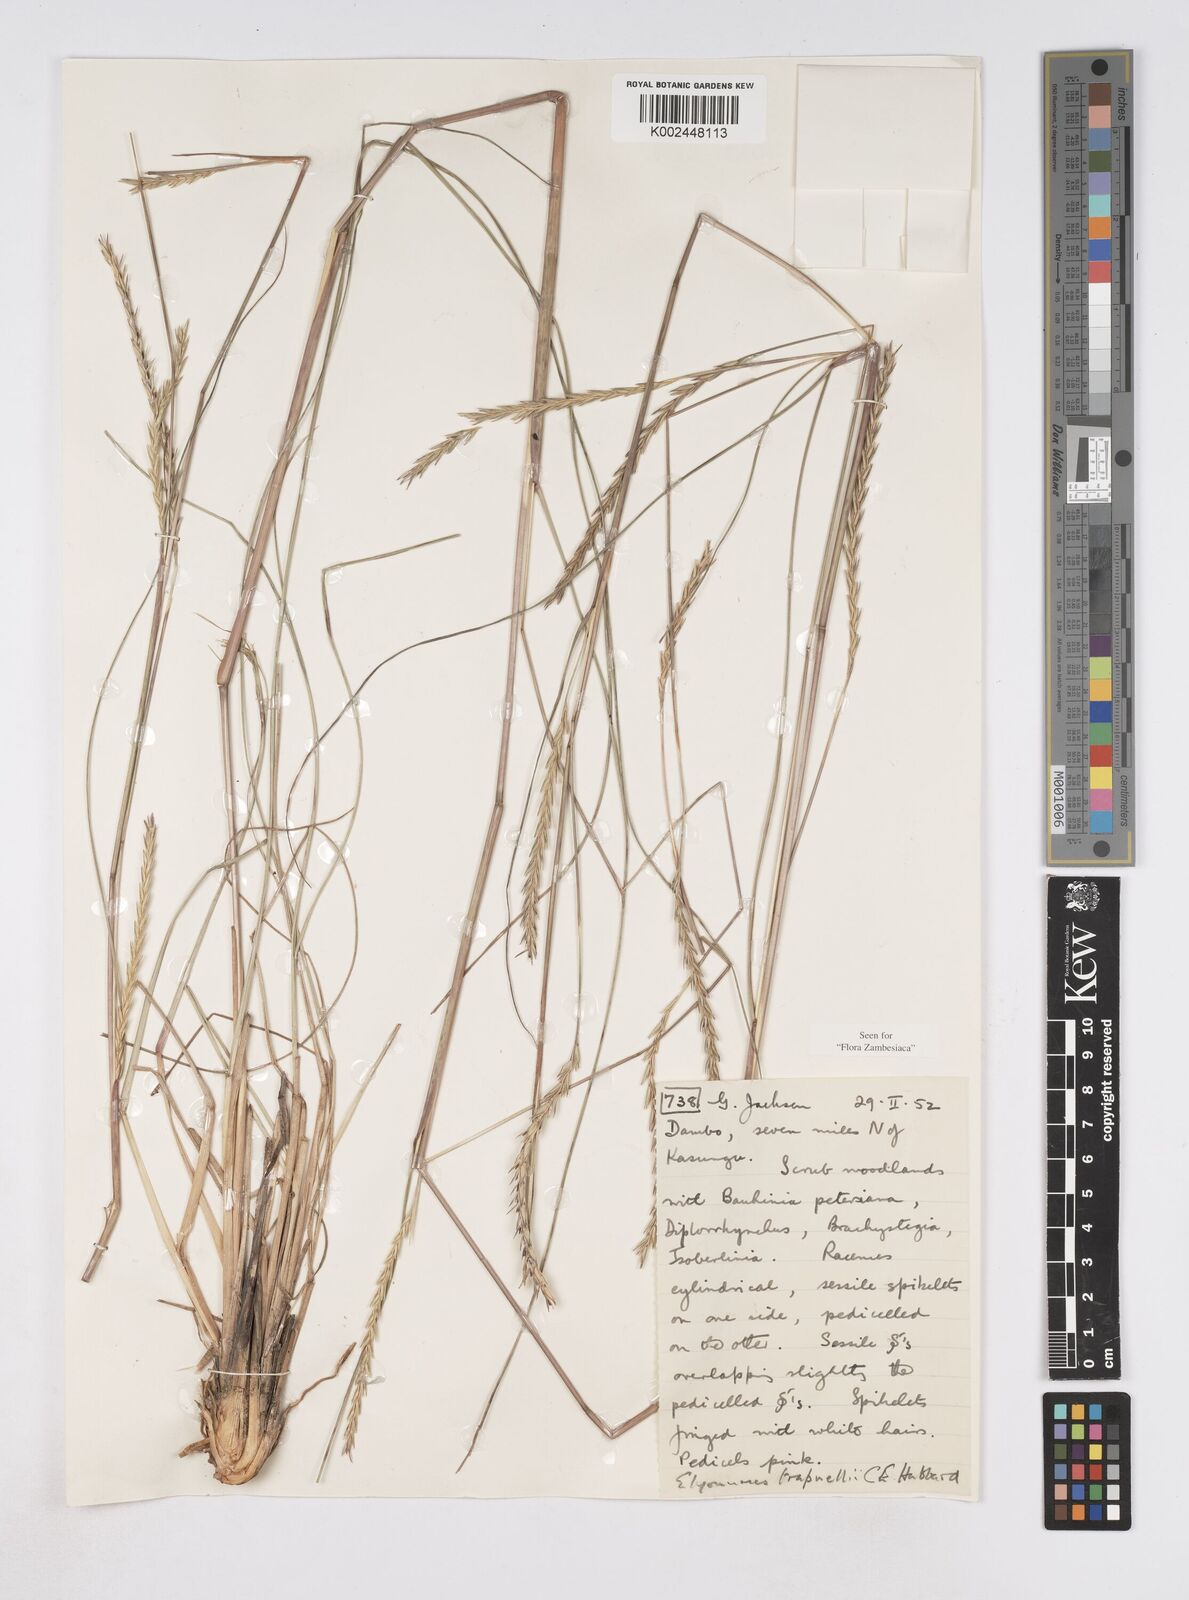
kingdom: Plantae
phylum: Tracheophyta
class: Liliopsida
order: Poales
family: Poaceae
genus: Elionurus
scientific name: Elionurus
